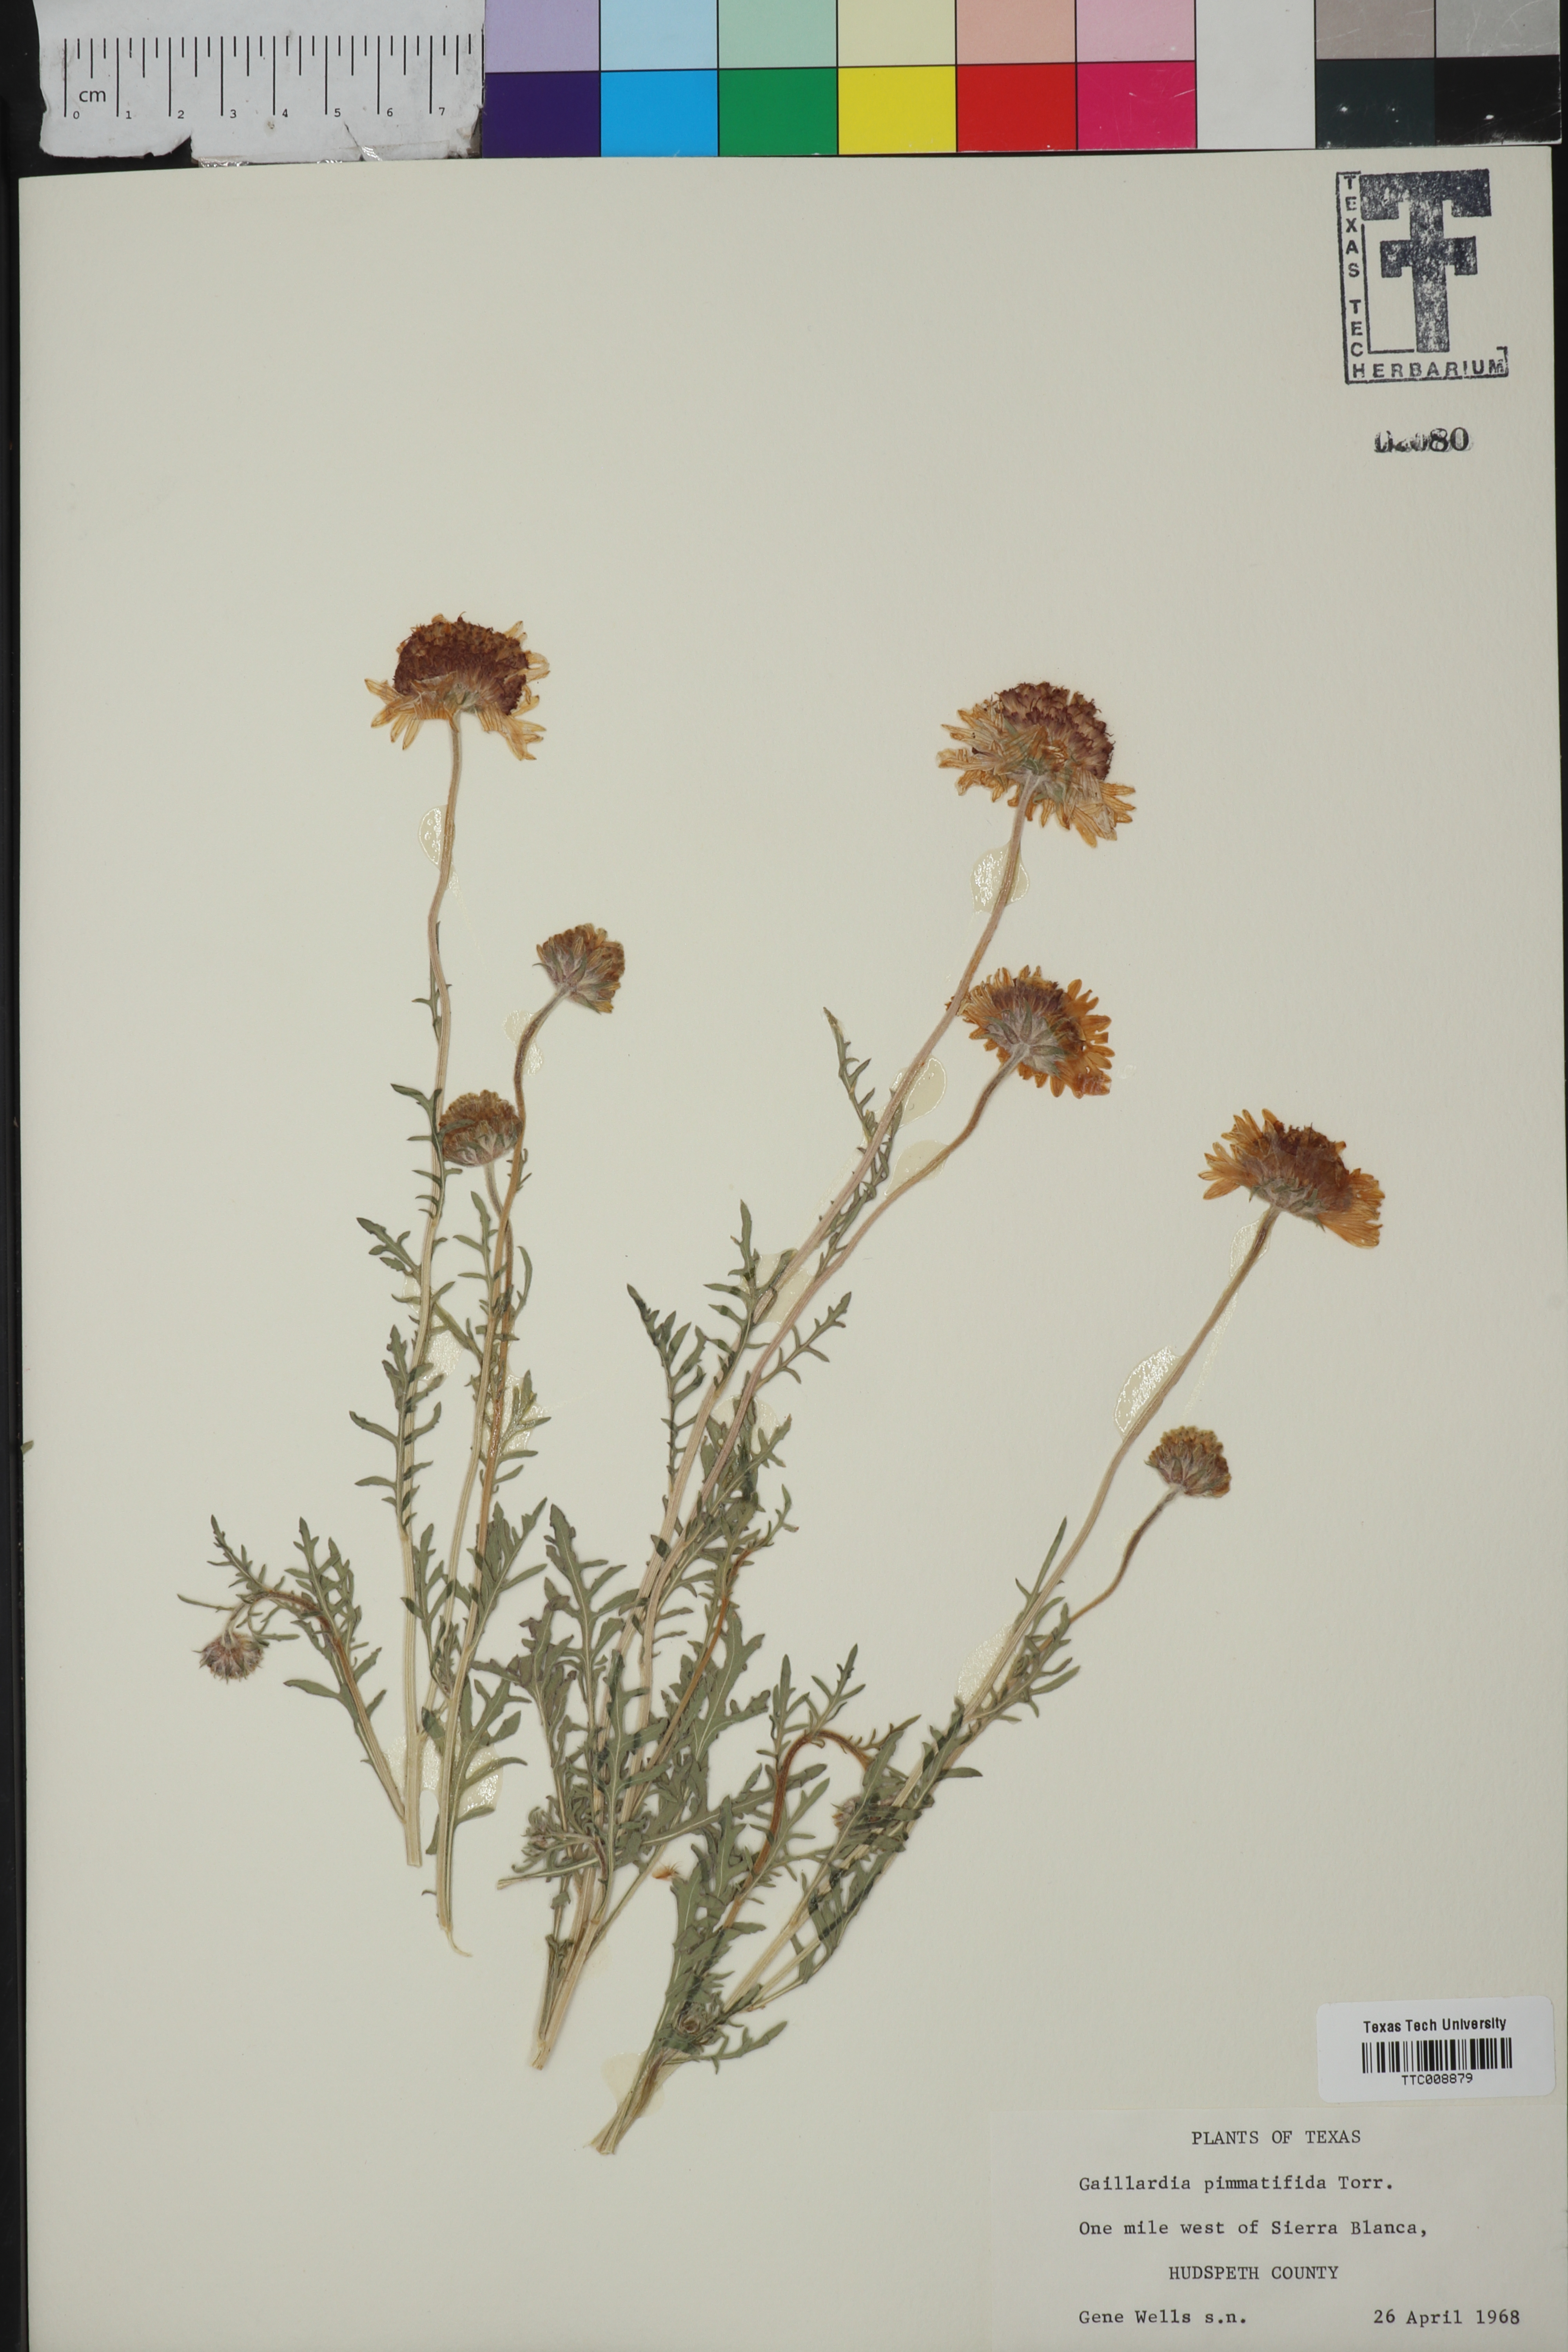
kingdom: Plantae
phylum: Tracheophyta
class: Magnoliopsida
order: Asterales
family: Asteraceae
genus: Gaillardia
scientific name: Gaillardia pinnatifida
